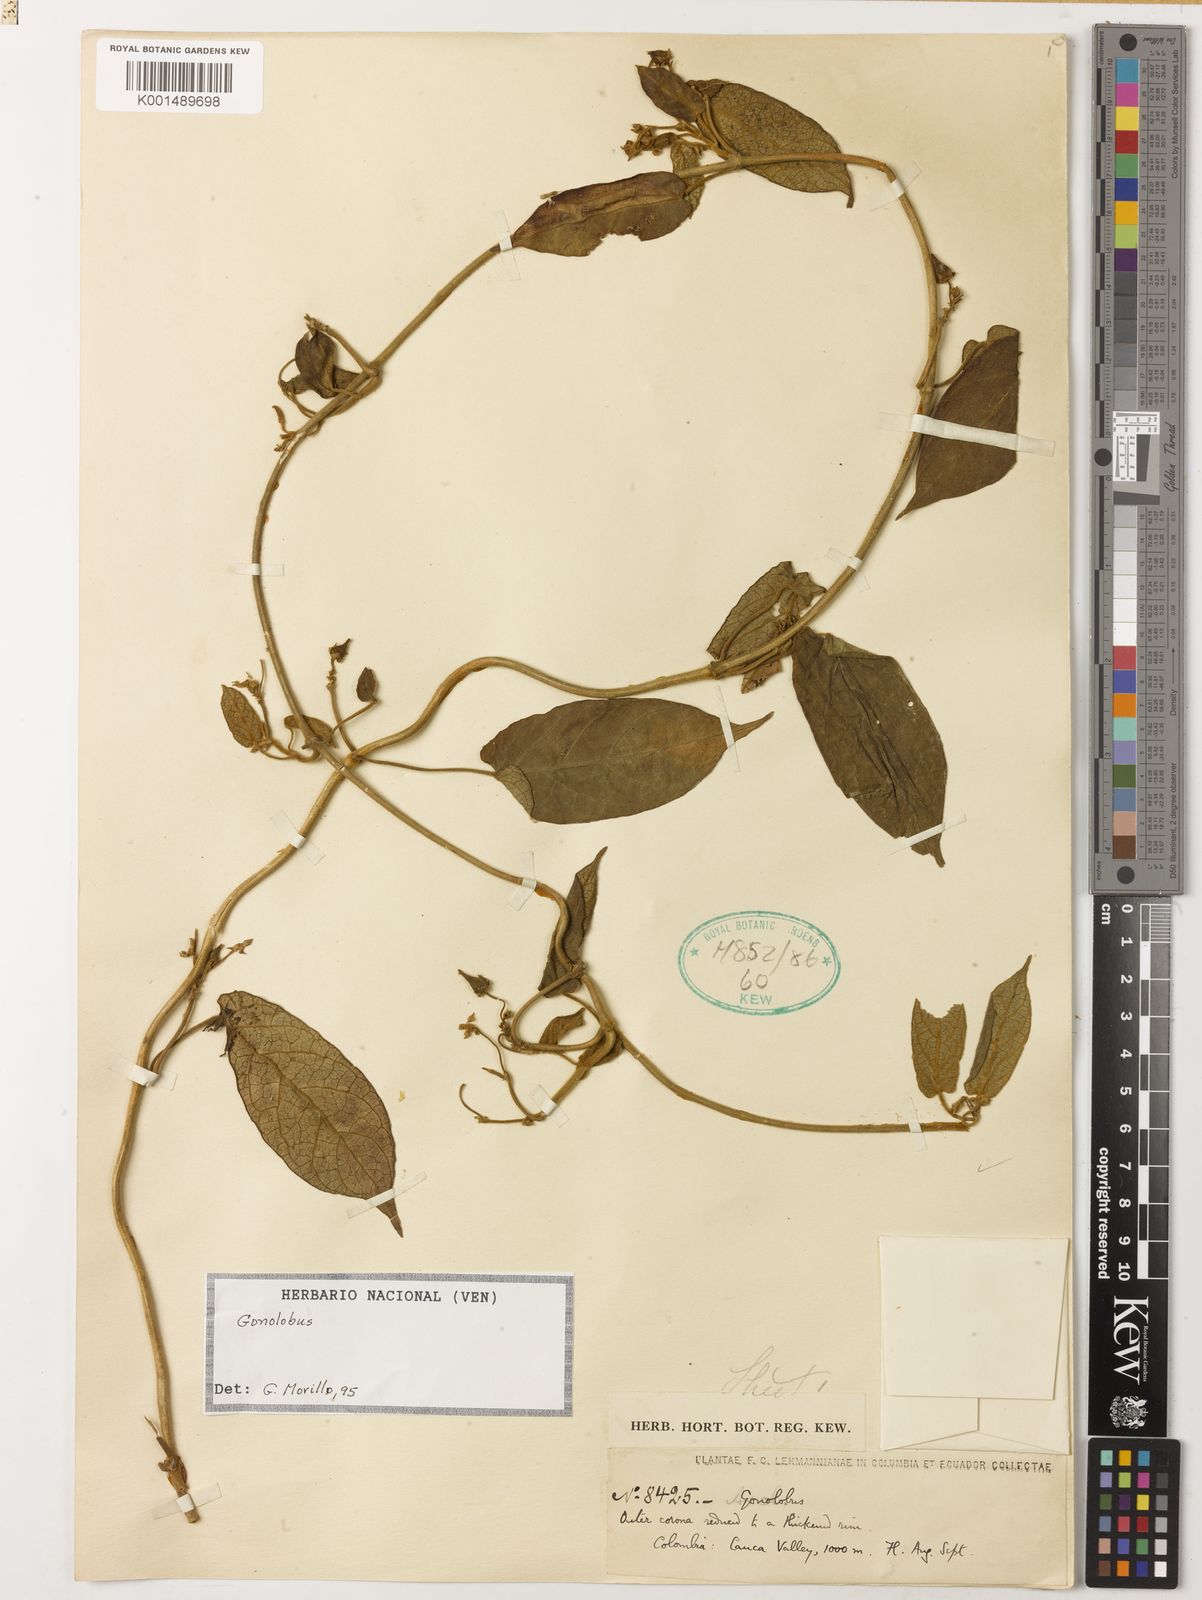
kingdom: Plantae
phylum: Tracheophyta
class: Magnoliopsida
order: Gentianales
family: Apocynaceae
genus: Gonolobus
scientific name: Gonolobus macrotis
